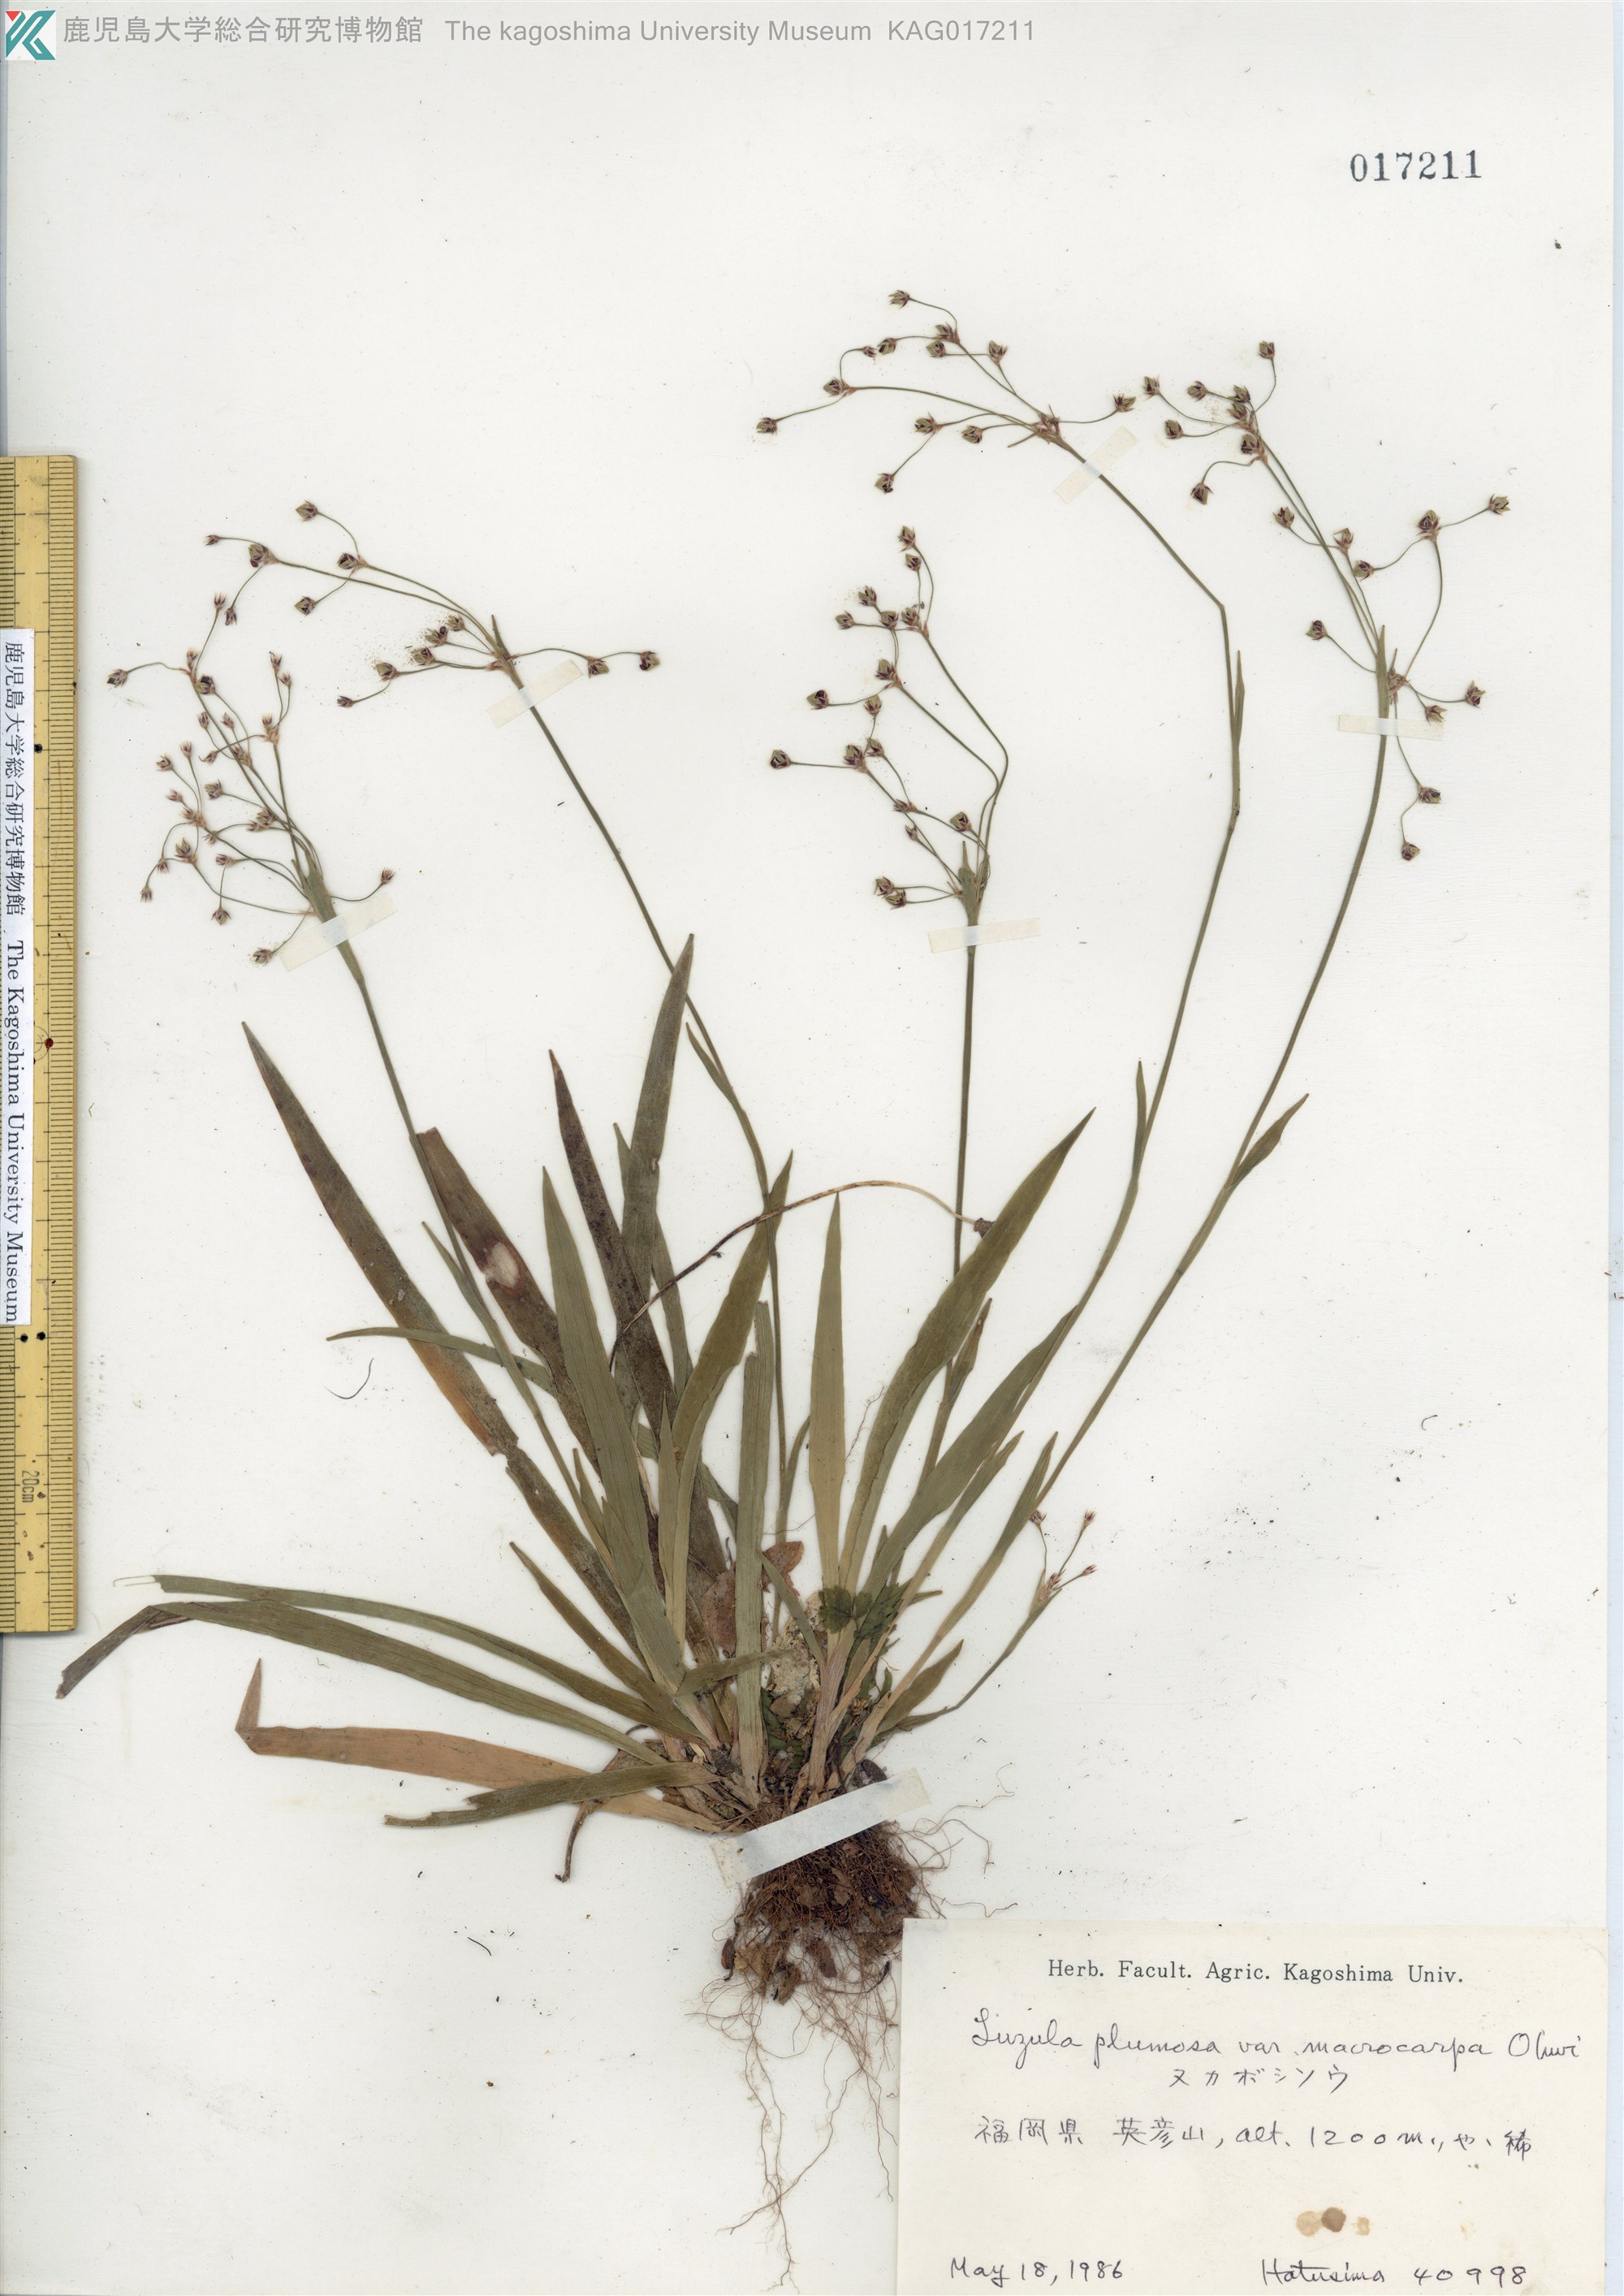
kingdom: Plantae
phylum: Tracheophyta
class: Liliopsida
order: Poales
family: Juncaceae
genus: Luzula
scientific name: Luzula plumosa
